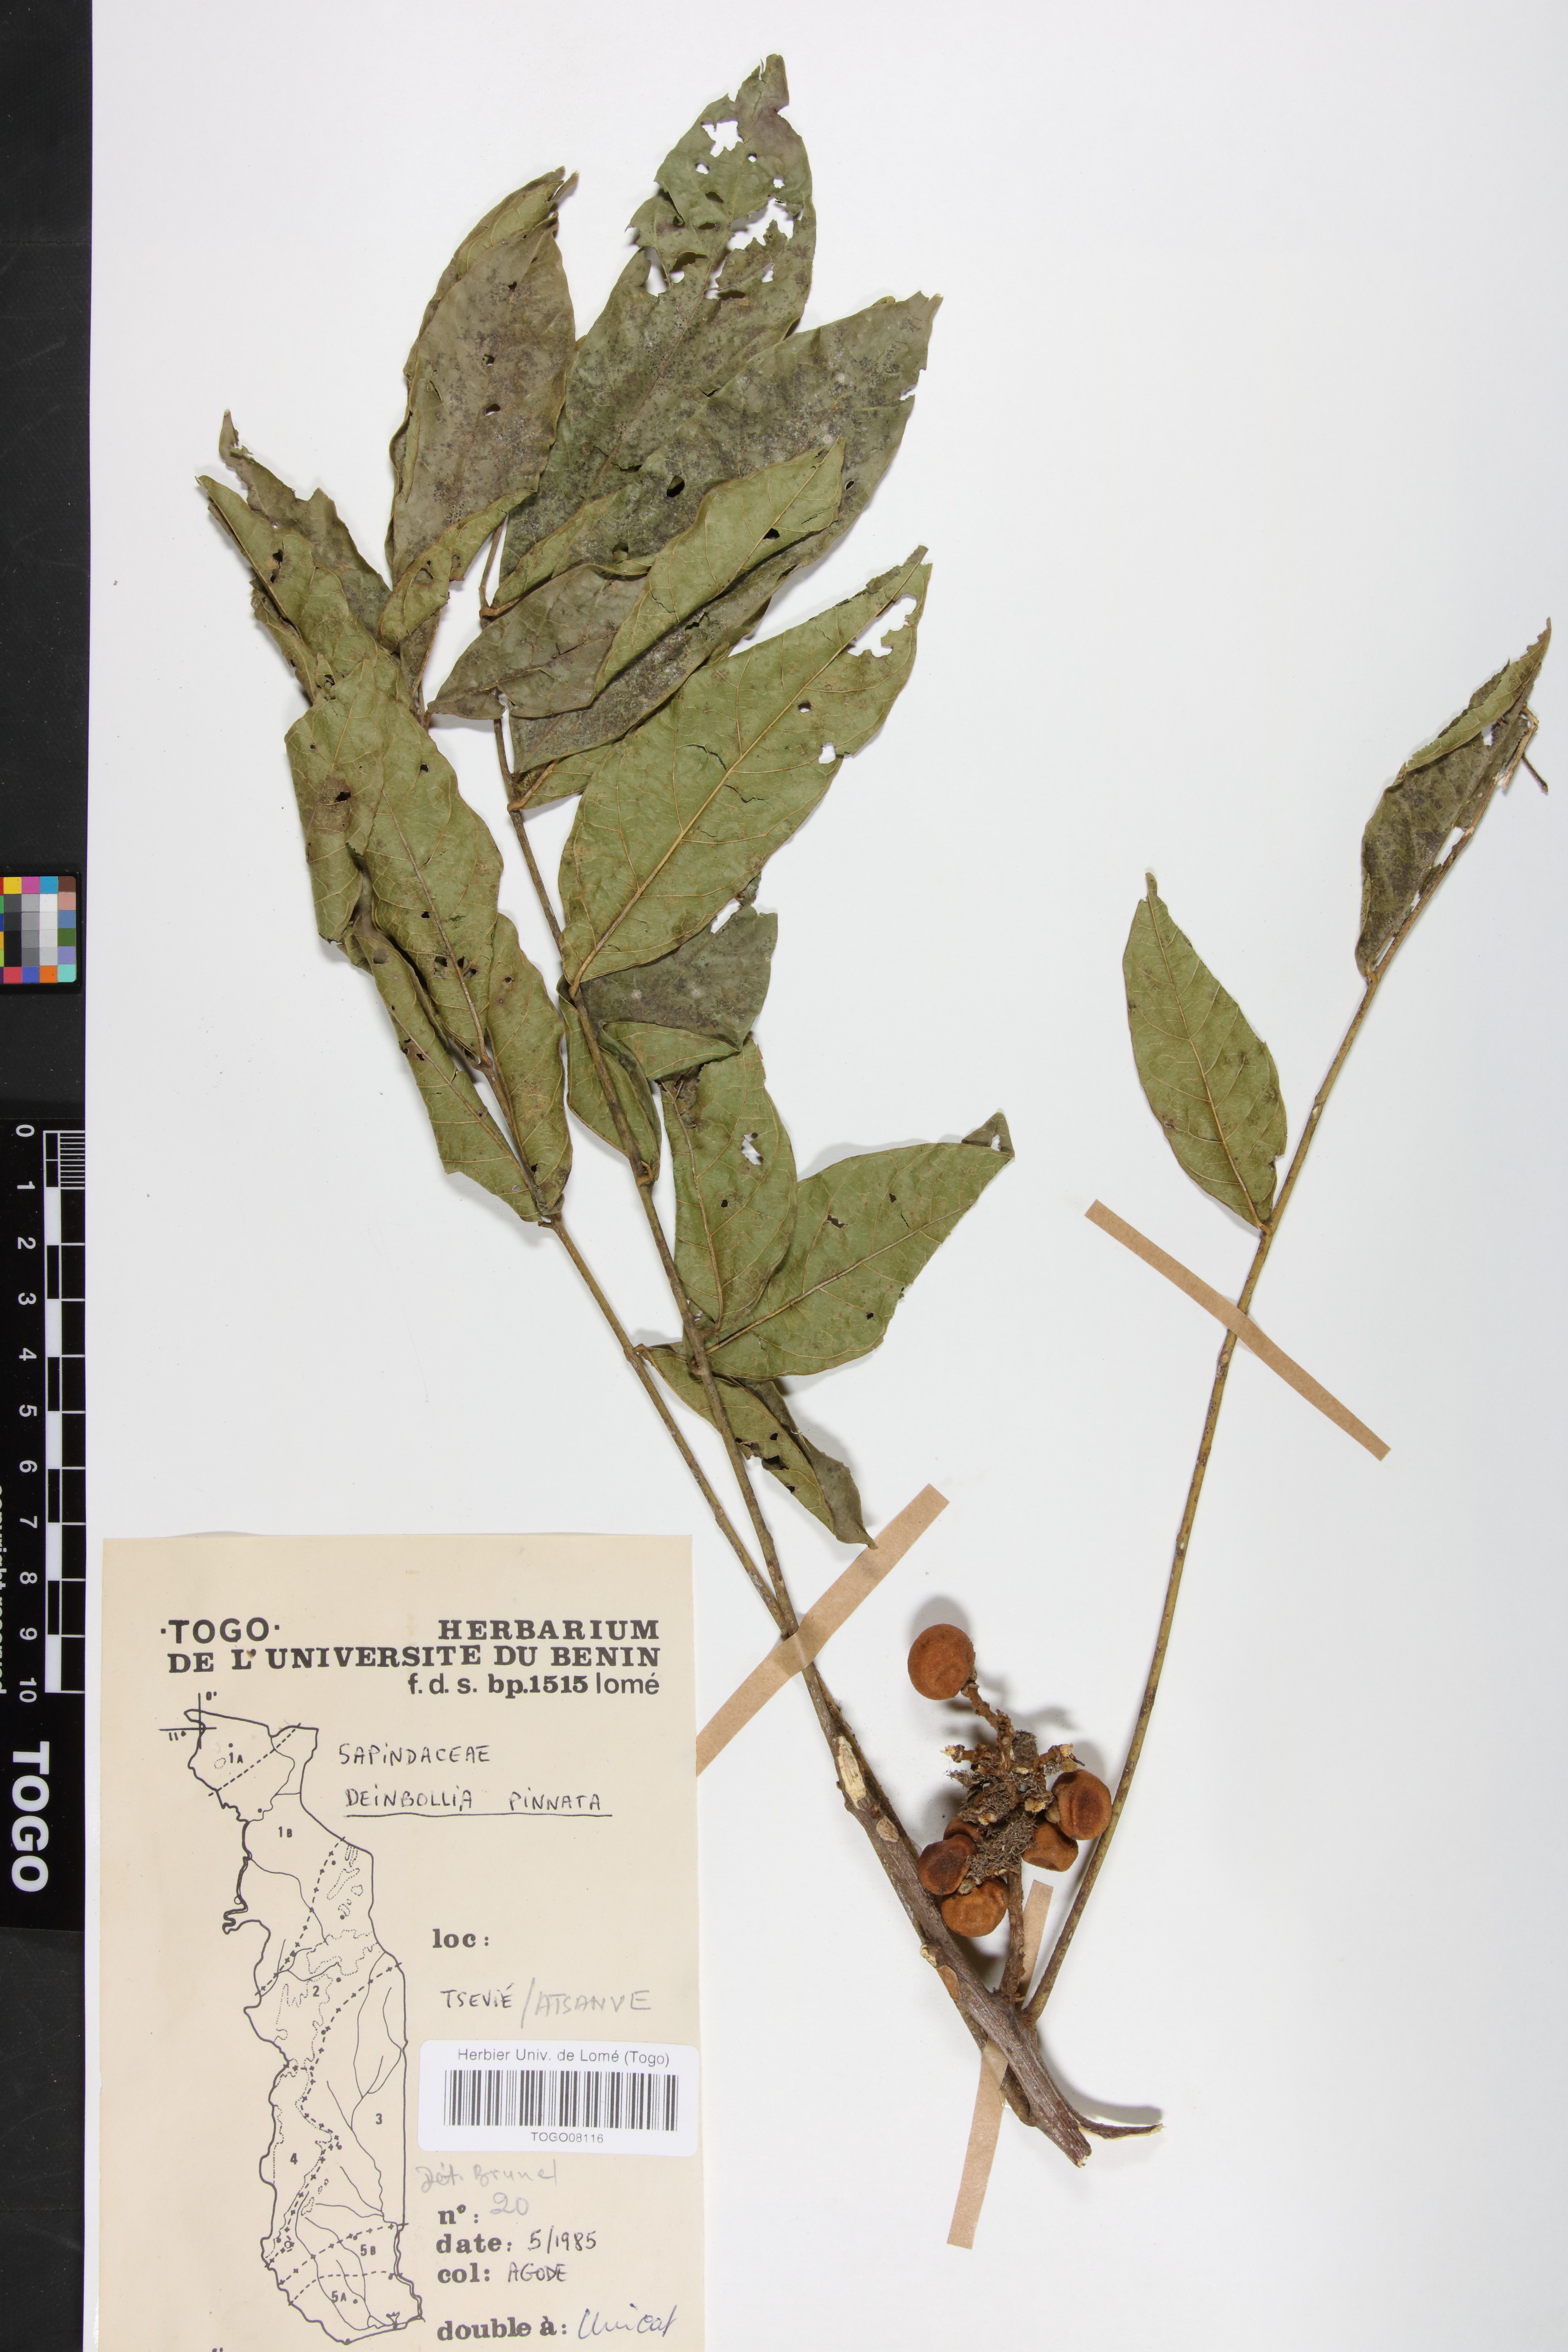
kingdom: Plantae
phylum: Tracheophyta
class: Magnoliopsida
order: Sapindales
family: Sapindaceae
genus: Deinbollia
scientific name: Deinbollia pinnata
